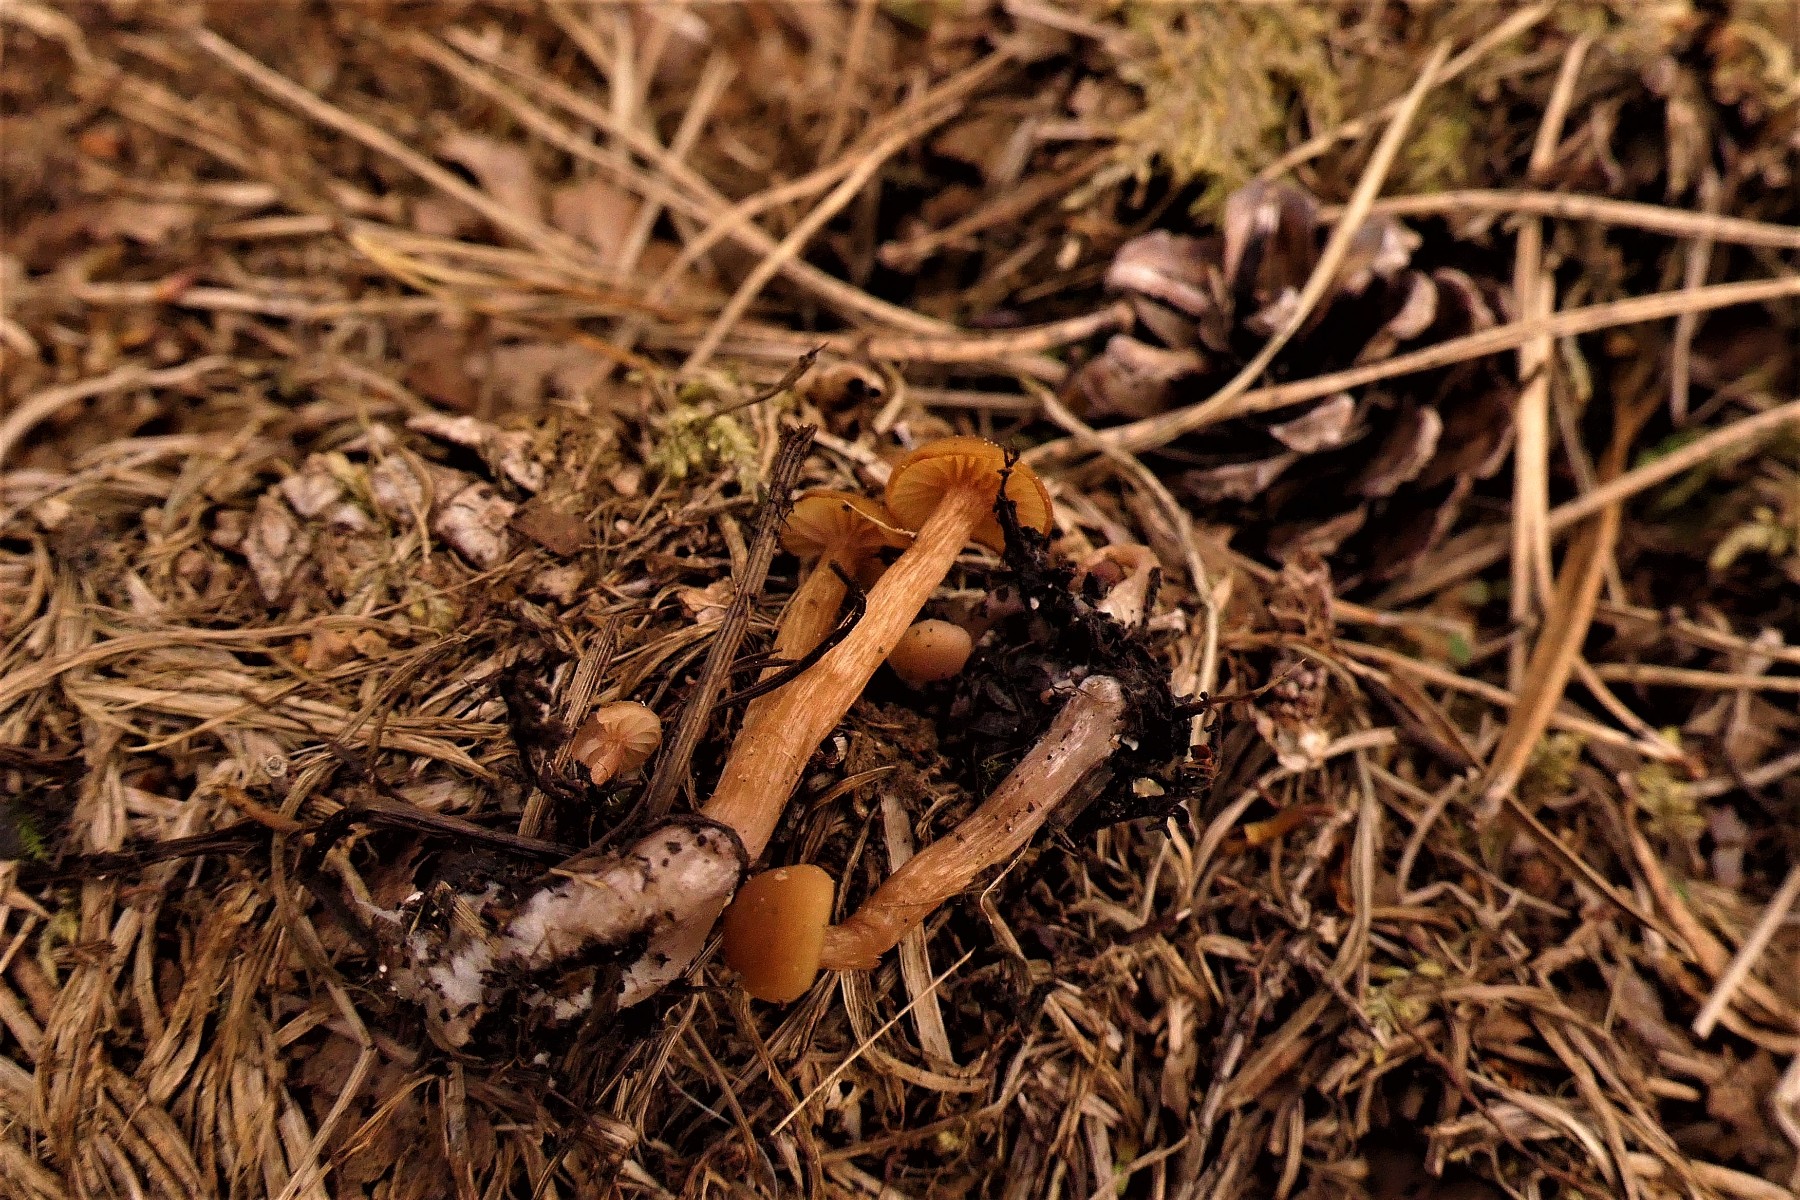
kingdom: Fungi
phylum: Basidiomycota
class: Agaricomycetes
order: Agaricales
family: Hydnangiaceae
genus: Laccaria
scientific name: Laccaria proxima
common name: stor ametysthat
